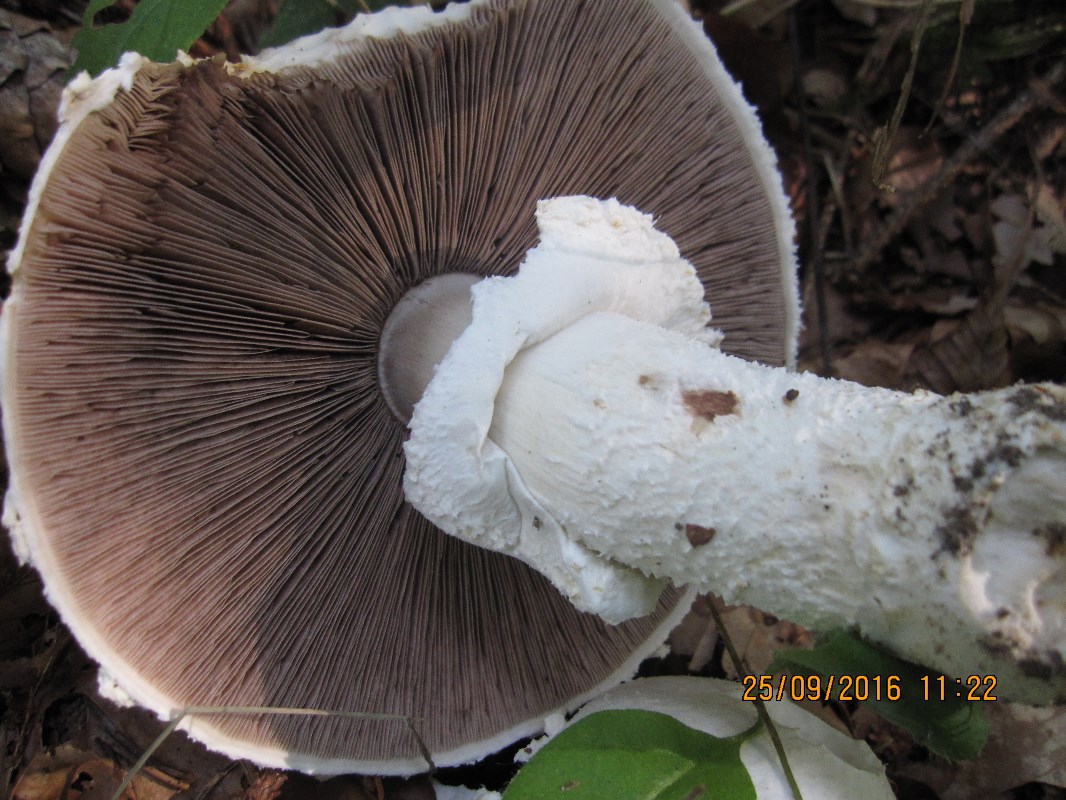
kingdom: Fungi
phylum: Basidiomycota
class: Agaricomycetes
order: Agaricales
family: Agaricaceae
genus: Agaricus
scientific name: Agaricus crocodilinus
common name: landsby-champignon
